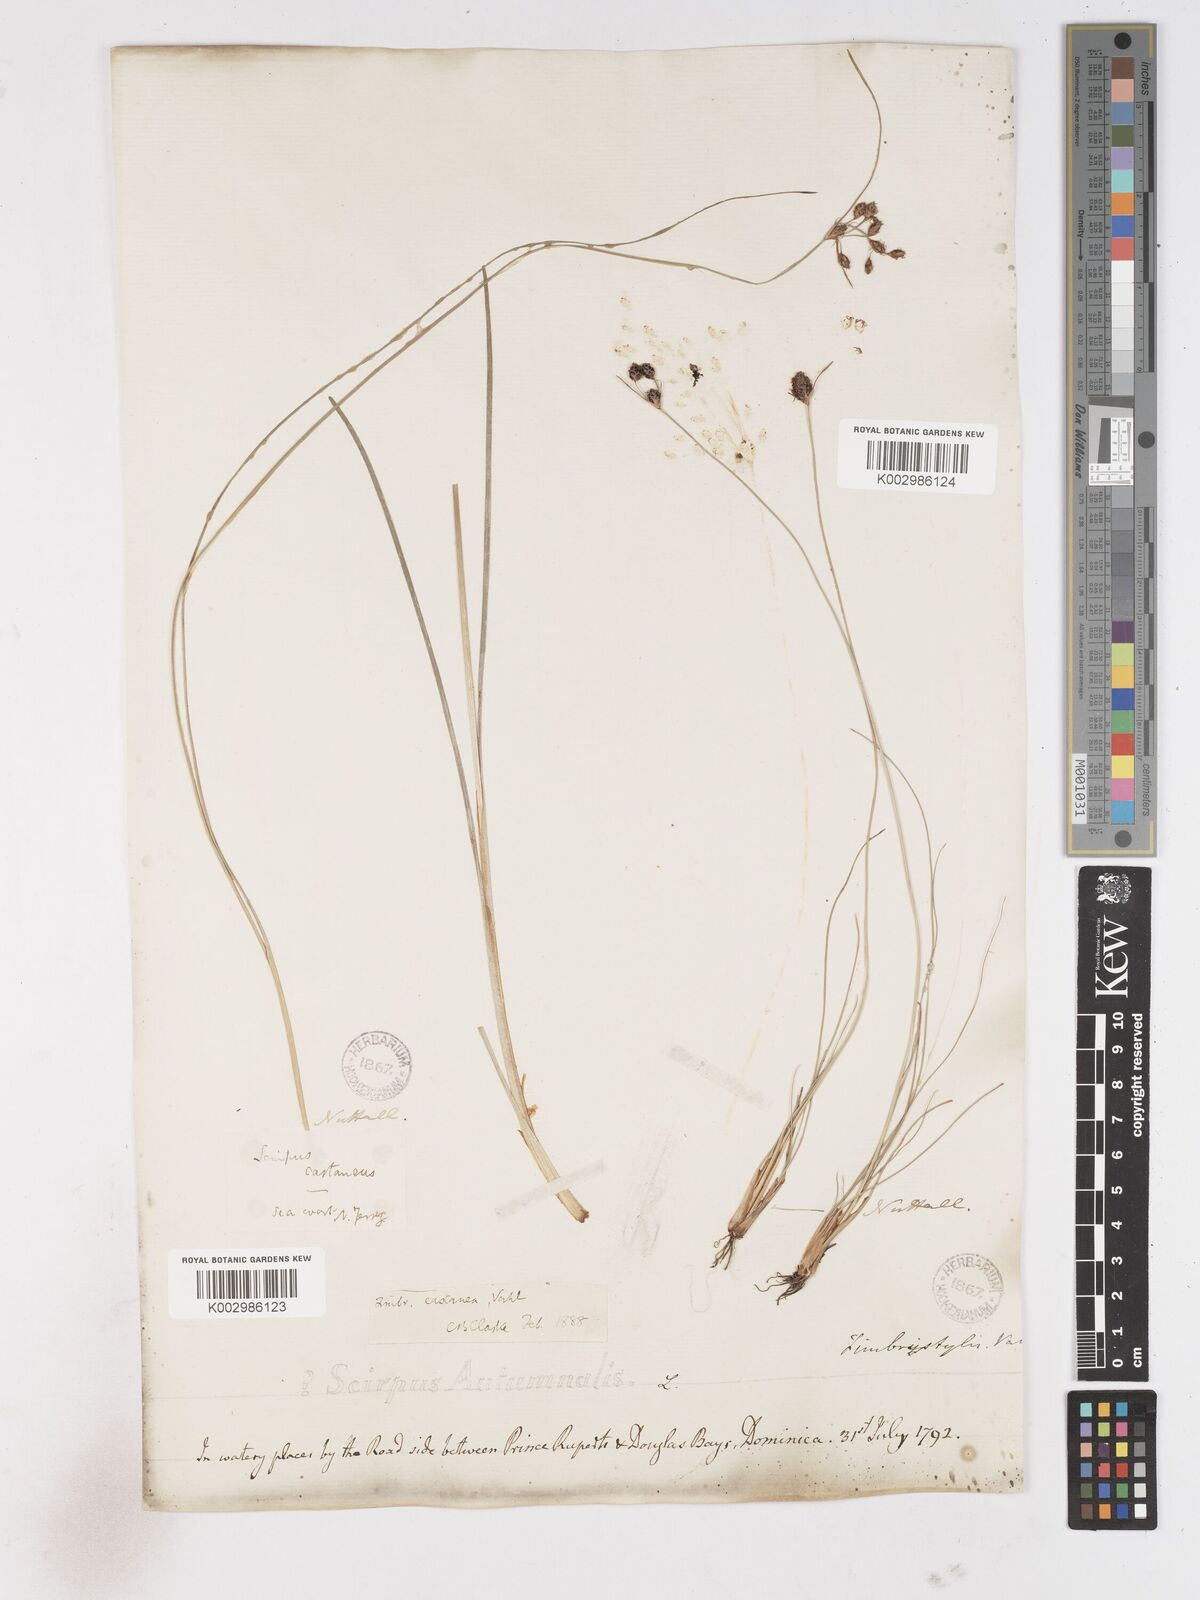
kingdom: Plantae
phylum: Tracheophyta
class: Liliopsida
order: Poales
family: Cyperaceae
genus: Fimbristylis
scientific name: Fimbristylis spadicea
